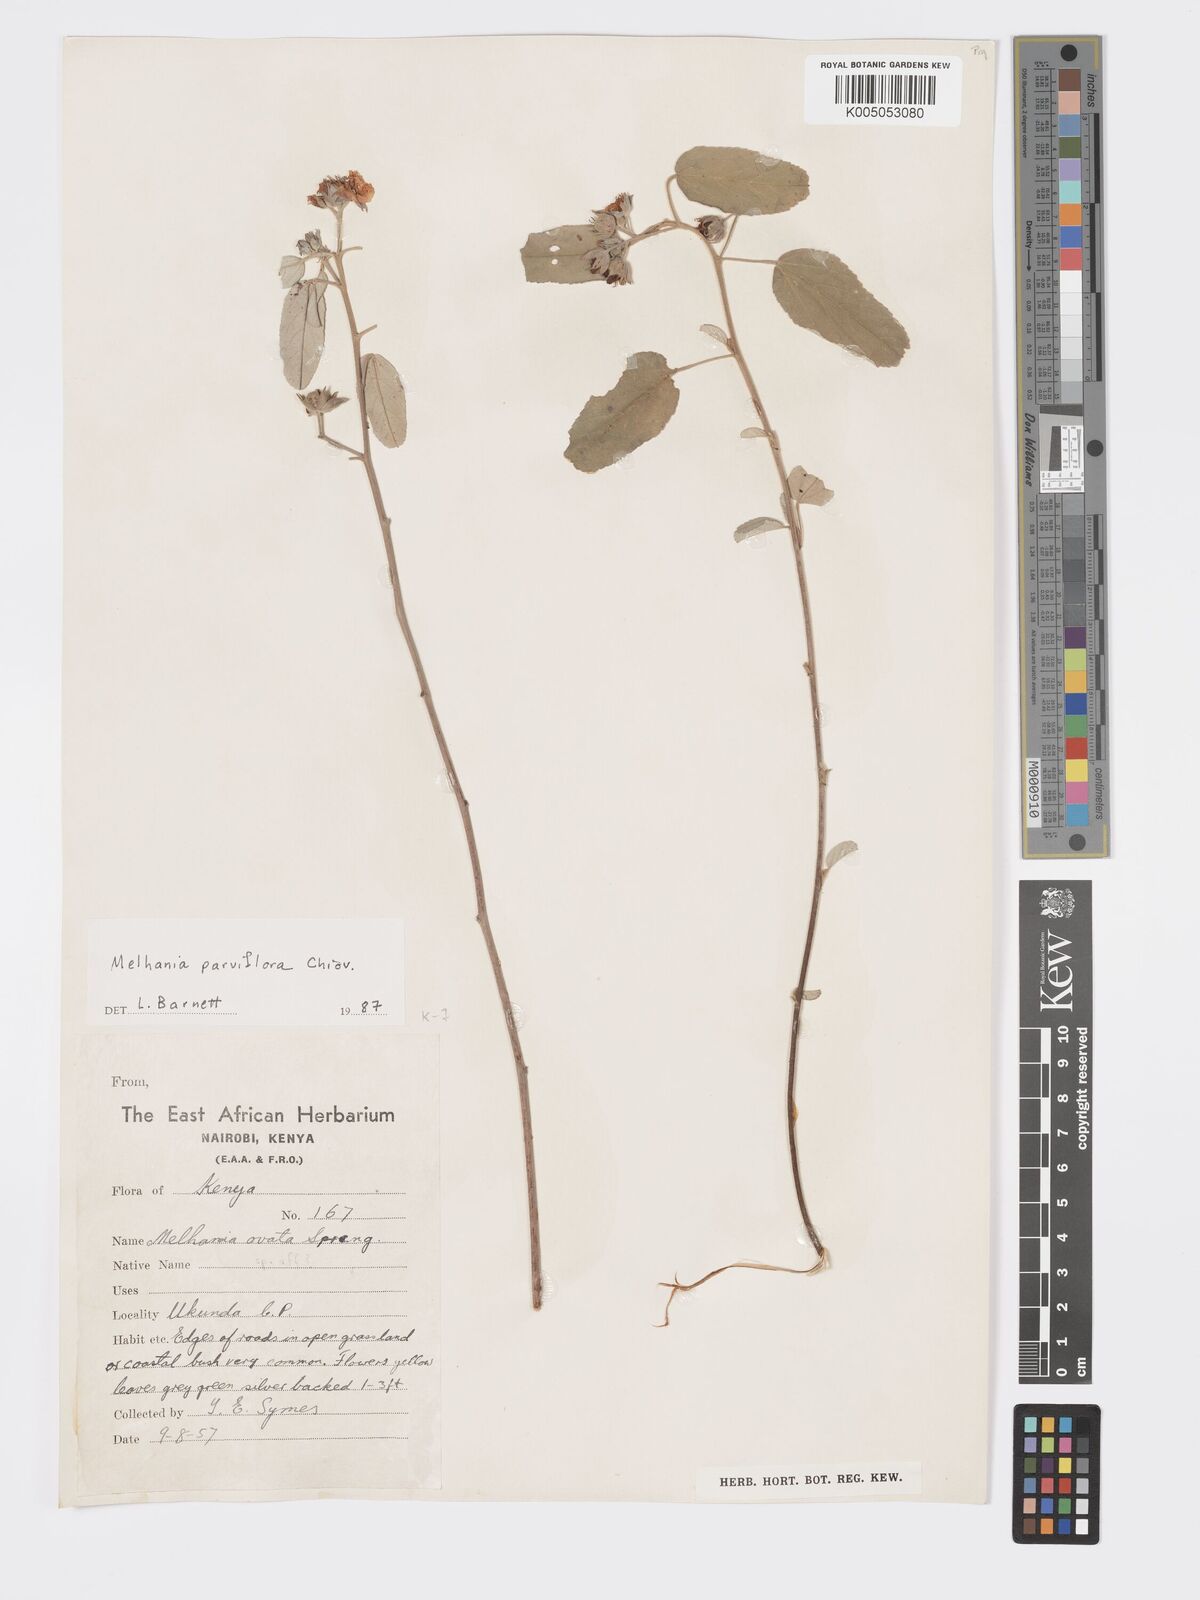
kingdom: Plantae
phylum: Tracheophyta
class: Magnoliopsida
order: Malvales
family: Malvaceae
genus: Melhania
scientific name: Melhania parviflora
